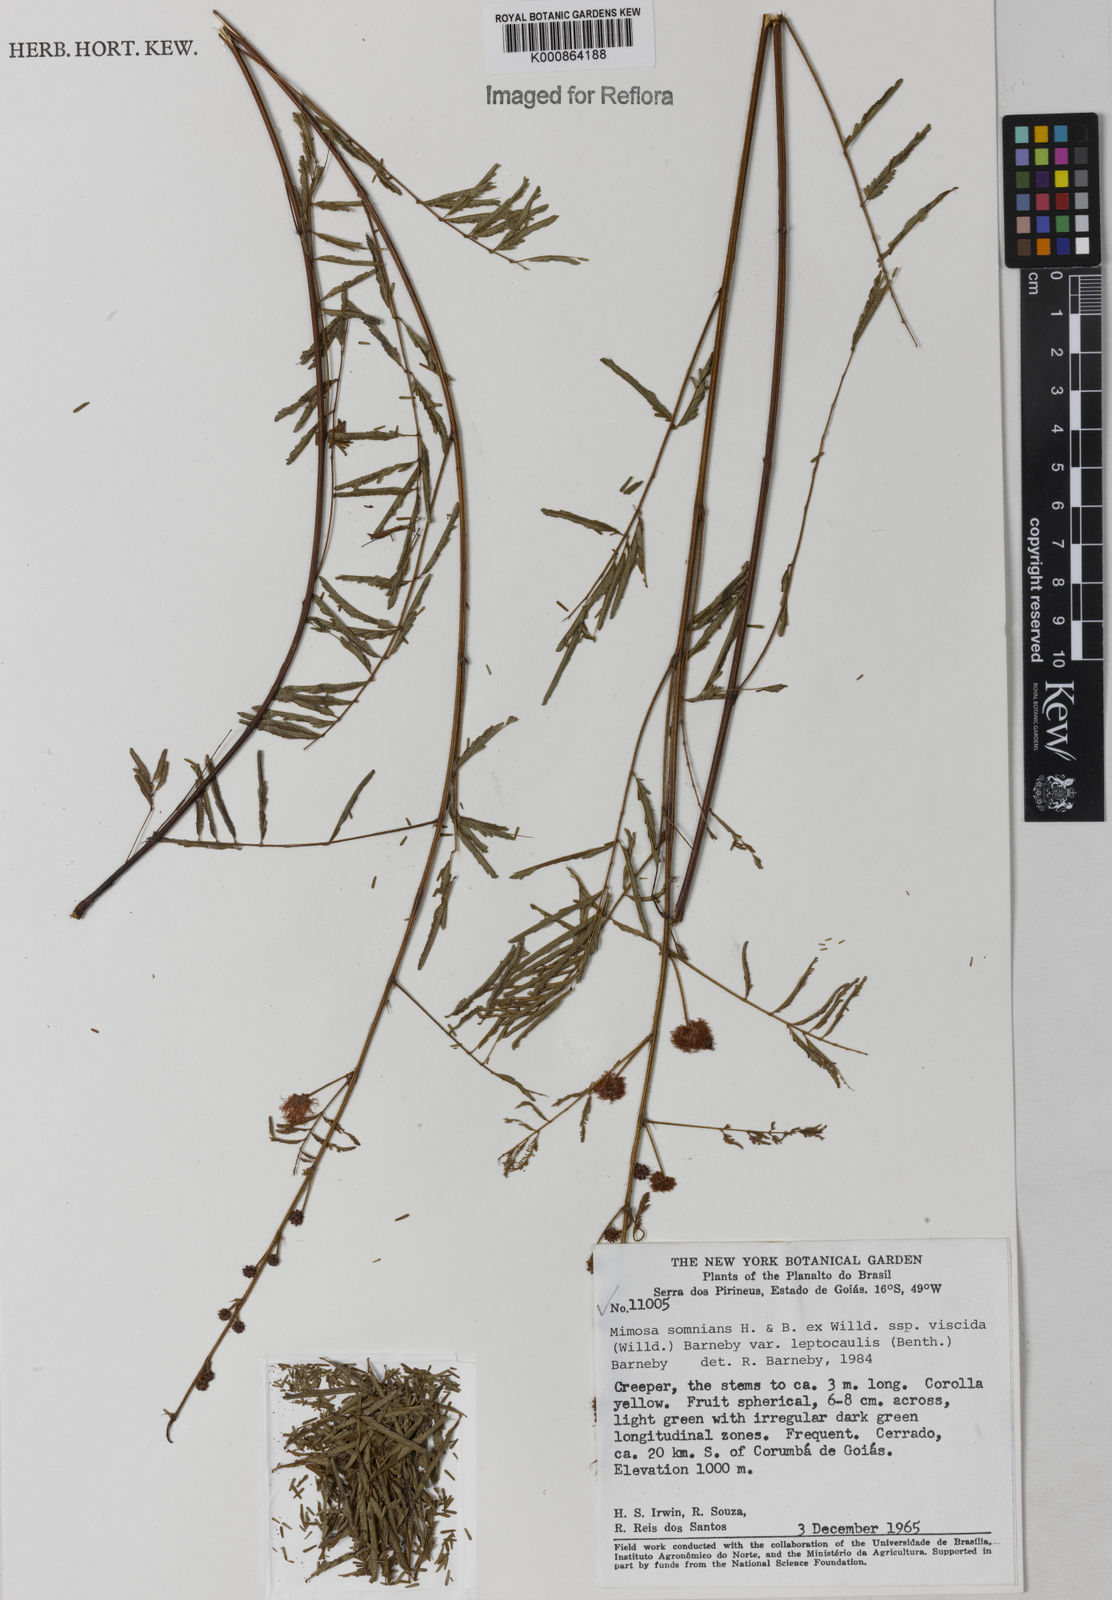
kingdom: Plantae
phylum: Tracheophyta
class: Magnoliopsida
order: Fabales
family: Fabaceae
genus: Mimosa
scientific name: Mimosa somnians
